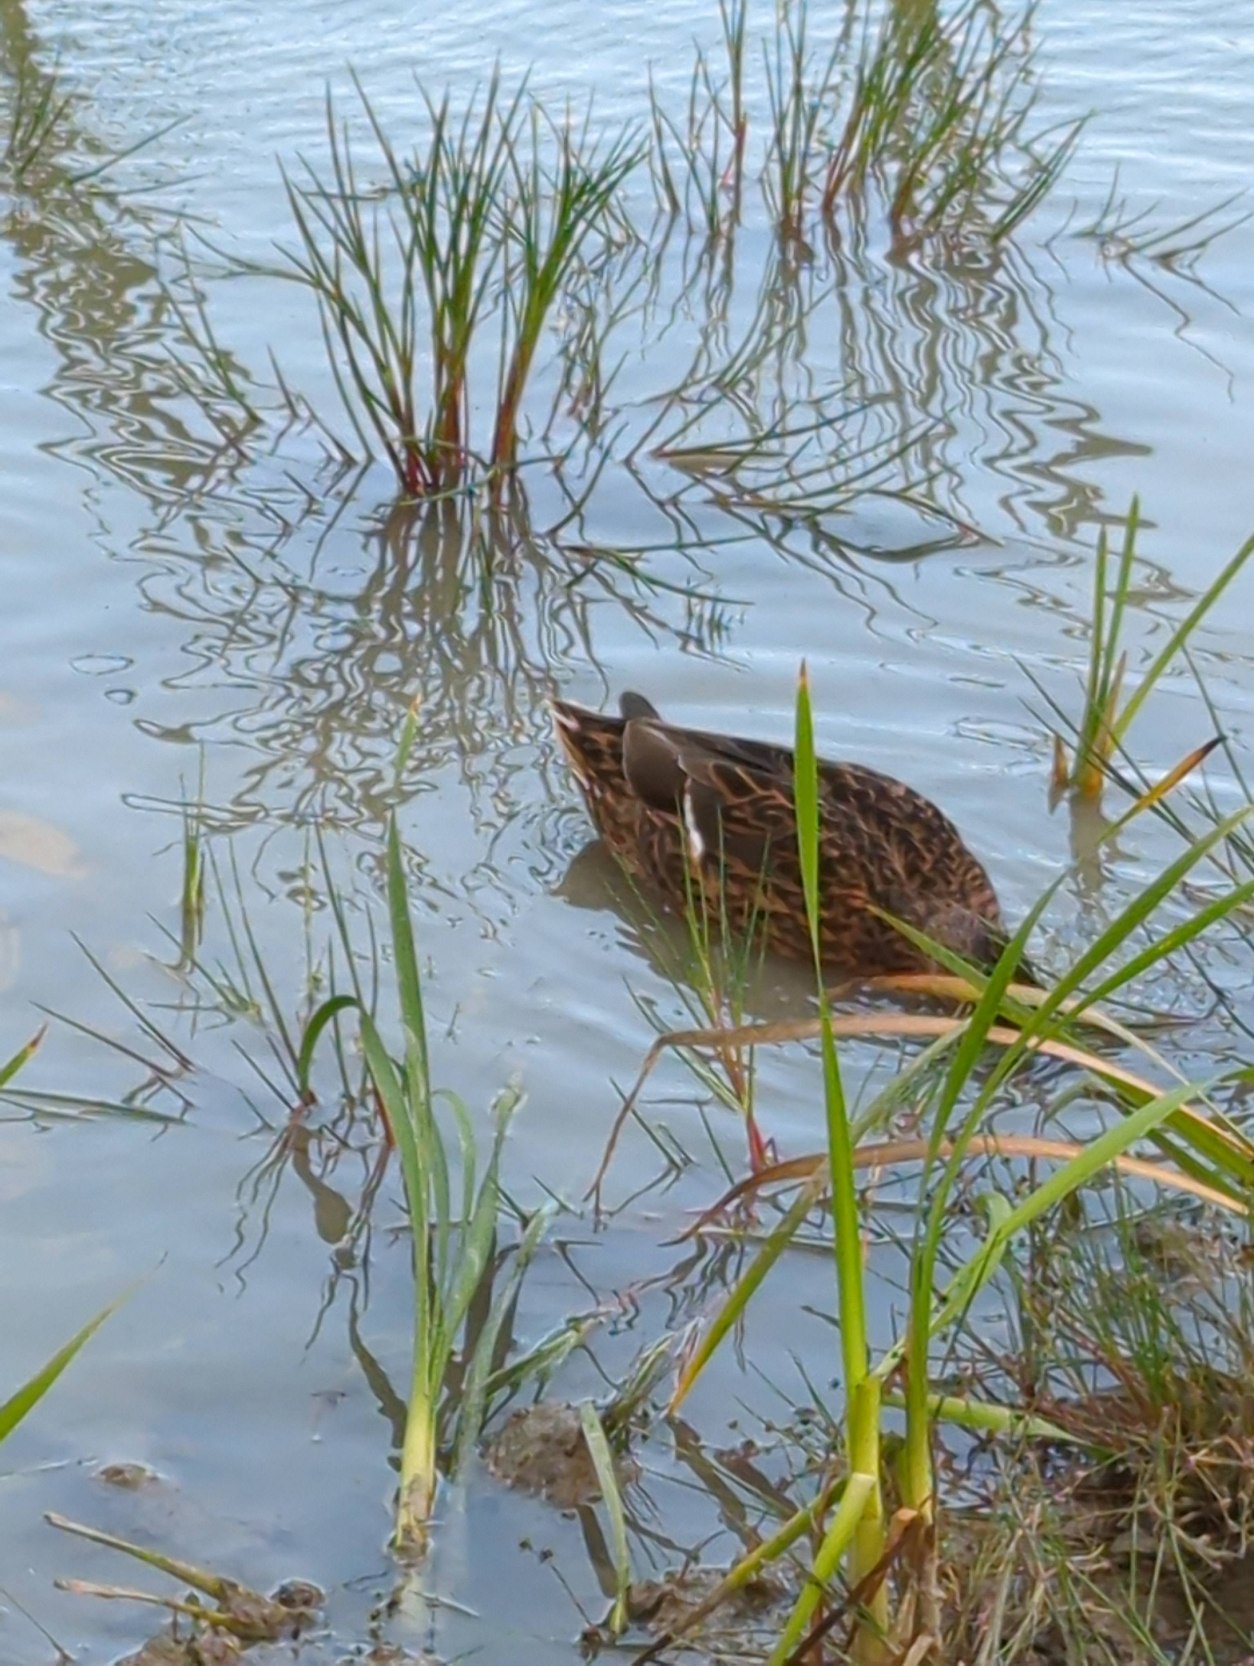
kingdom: Animalia
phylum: Chordata
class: Aves
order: Anseriformes
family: Anatidae
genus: Anas
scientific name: Anas platyrhynchos
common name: Gråand
